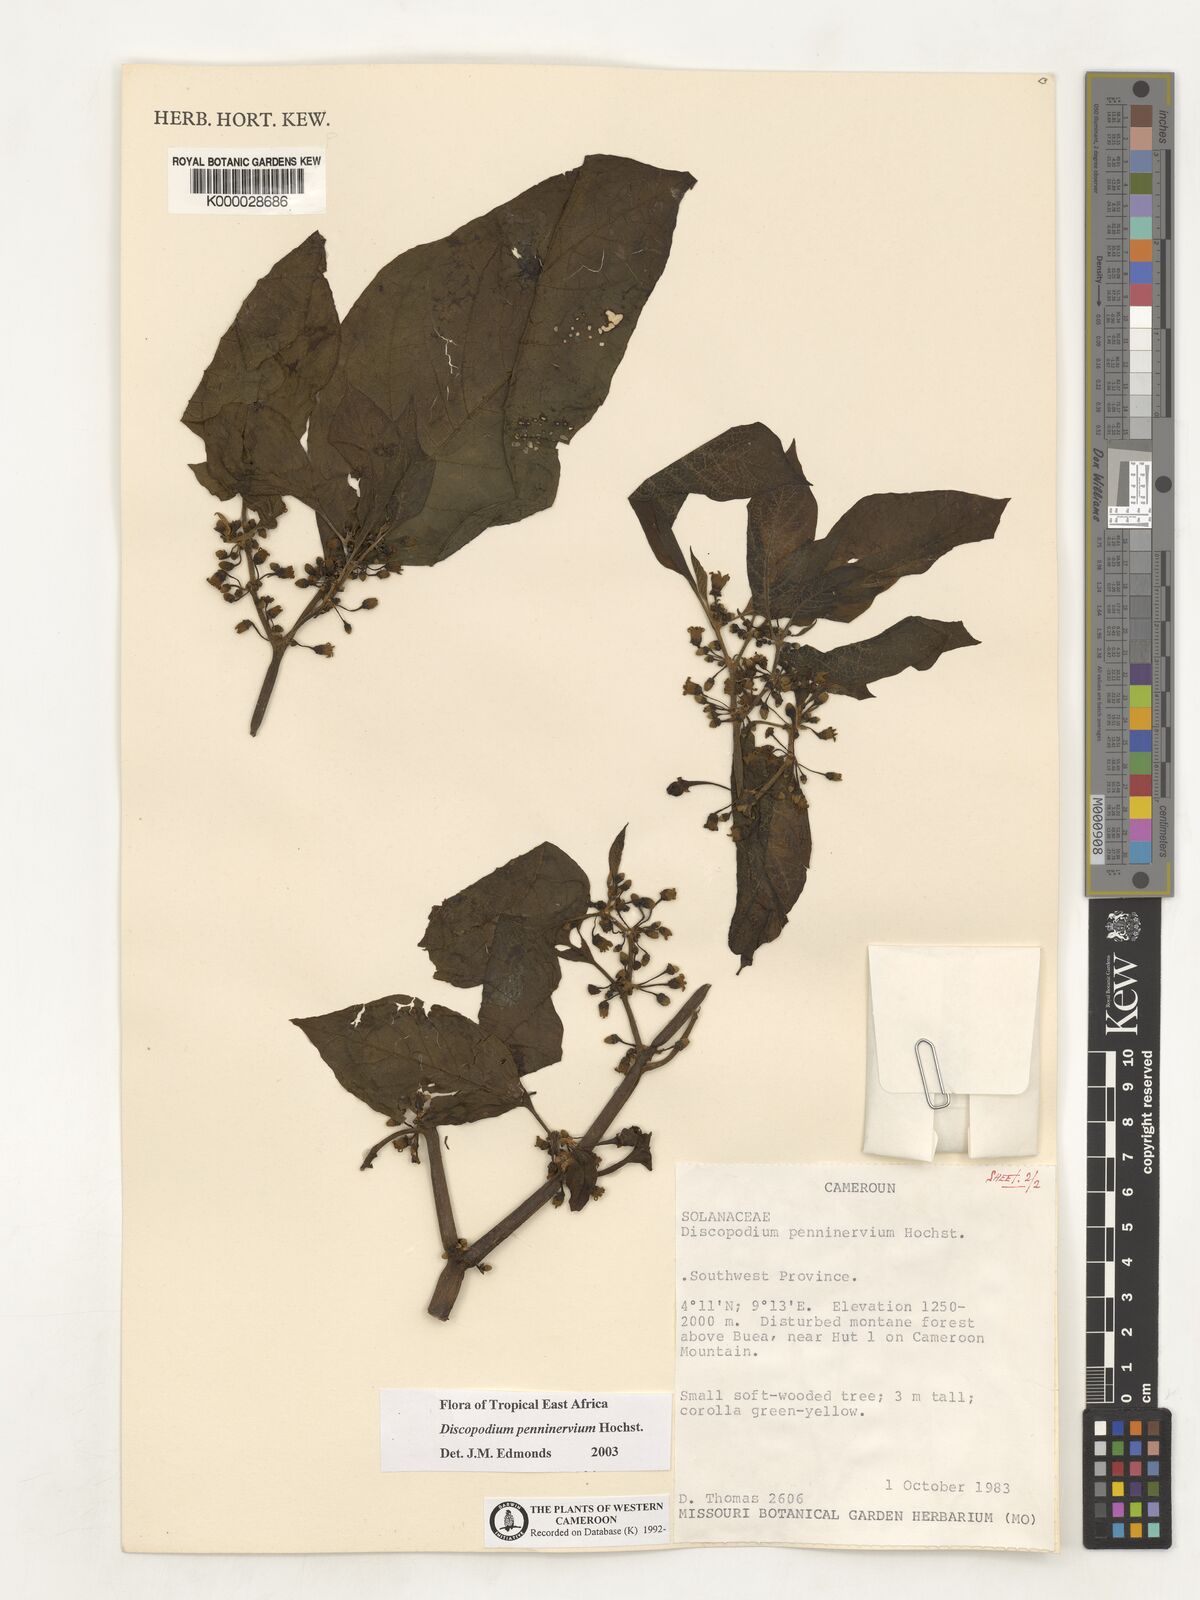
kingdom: Plantae
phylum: Tracheophyta
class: Magnoliopsida
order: Solanales
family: Solanaceae
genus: Discopodium
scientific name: Discopodium penninervium
